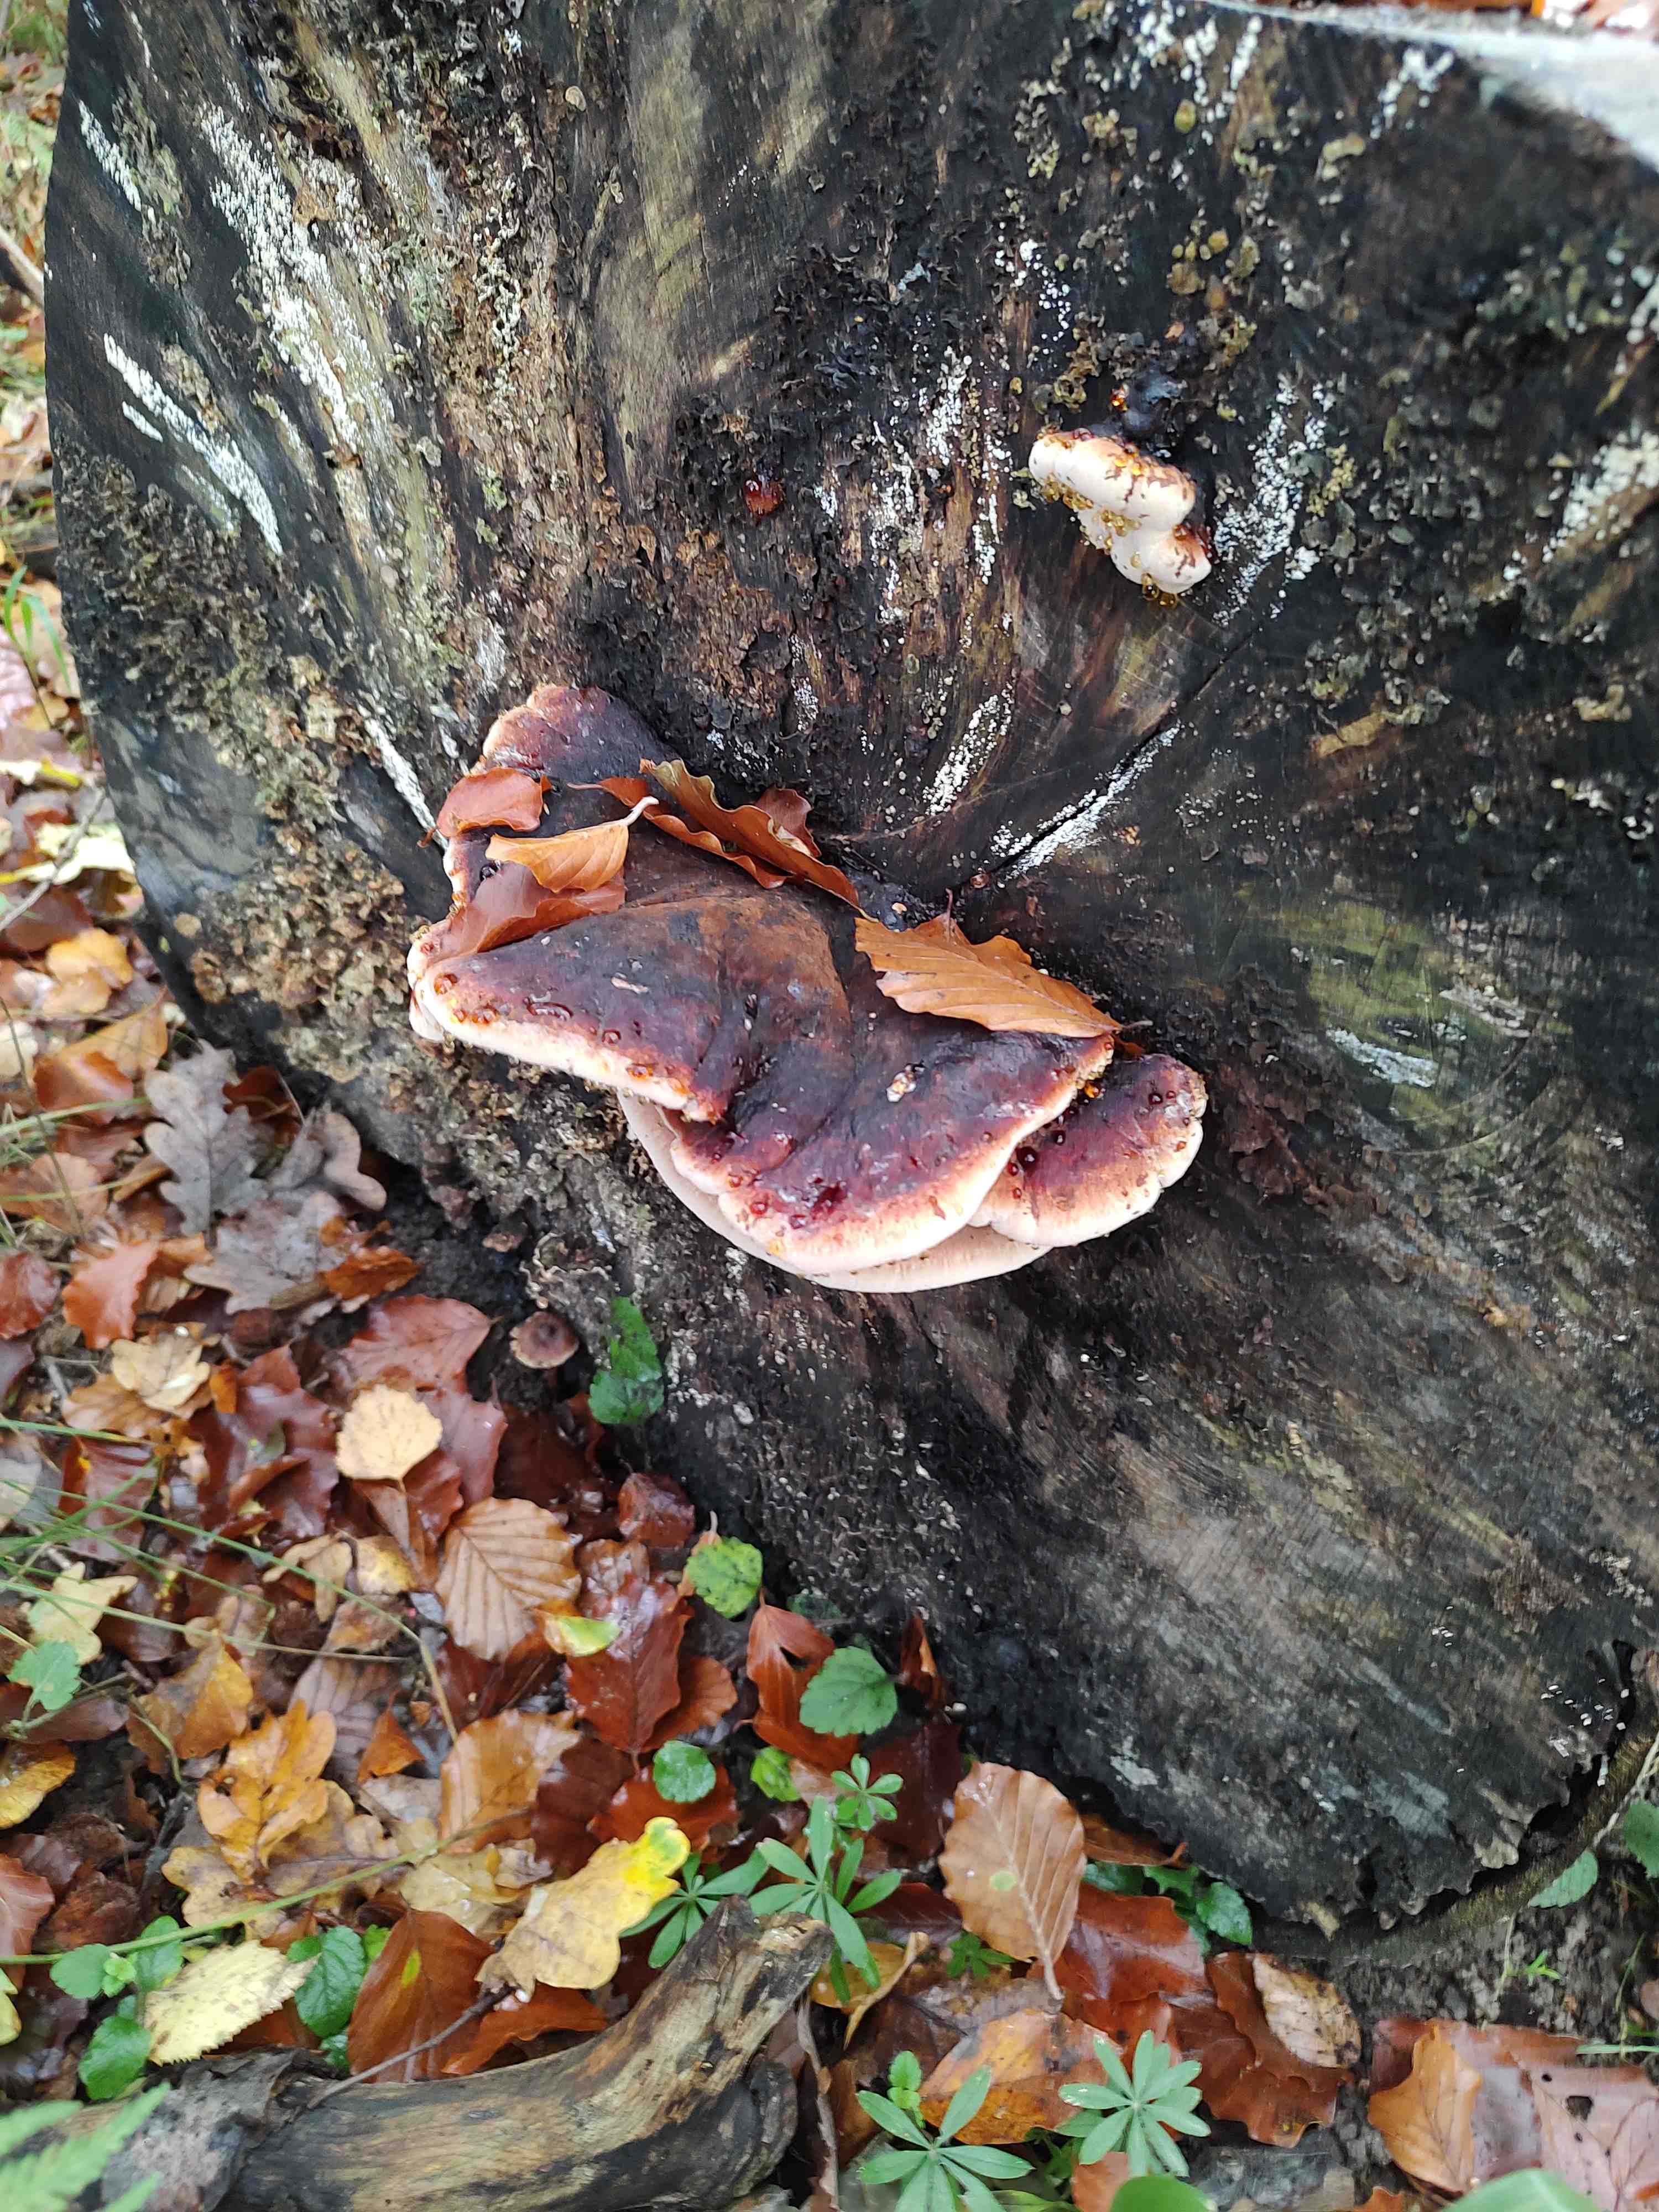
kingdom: Fungi
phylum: Basidiomycota
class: Agaricomycetes
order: Polyporales
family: Ischnodermataceae
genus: Ischnoderma
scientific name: Ischnoderma resinosum
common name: løv-tjæreporesvamp
